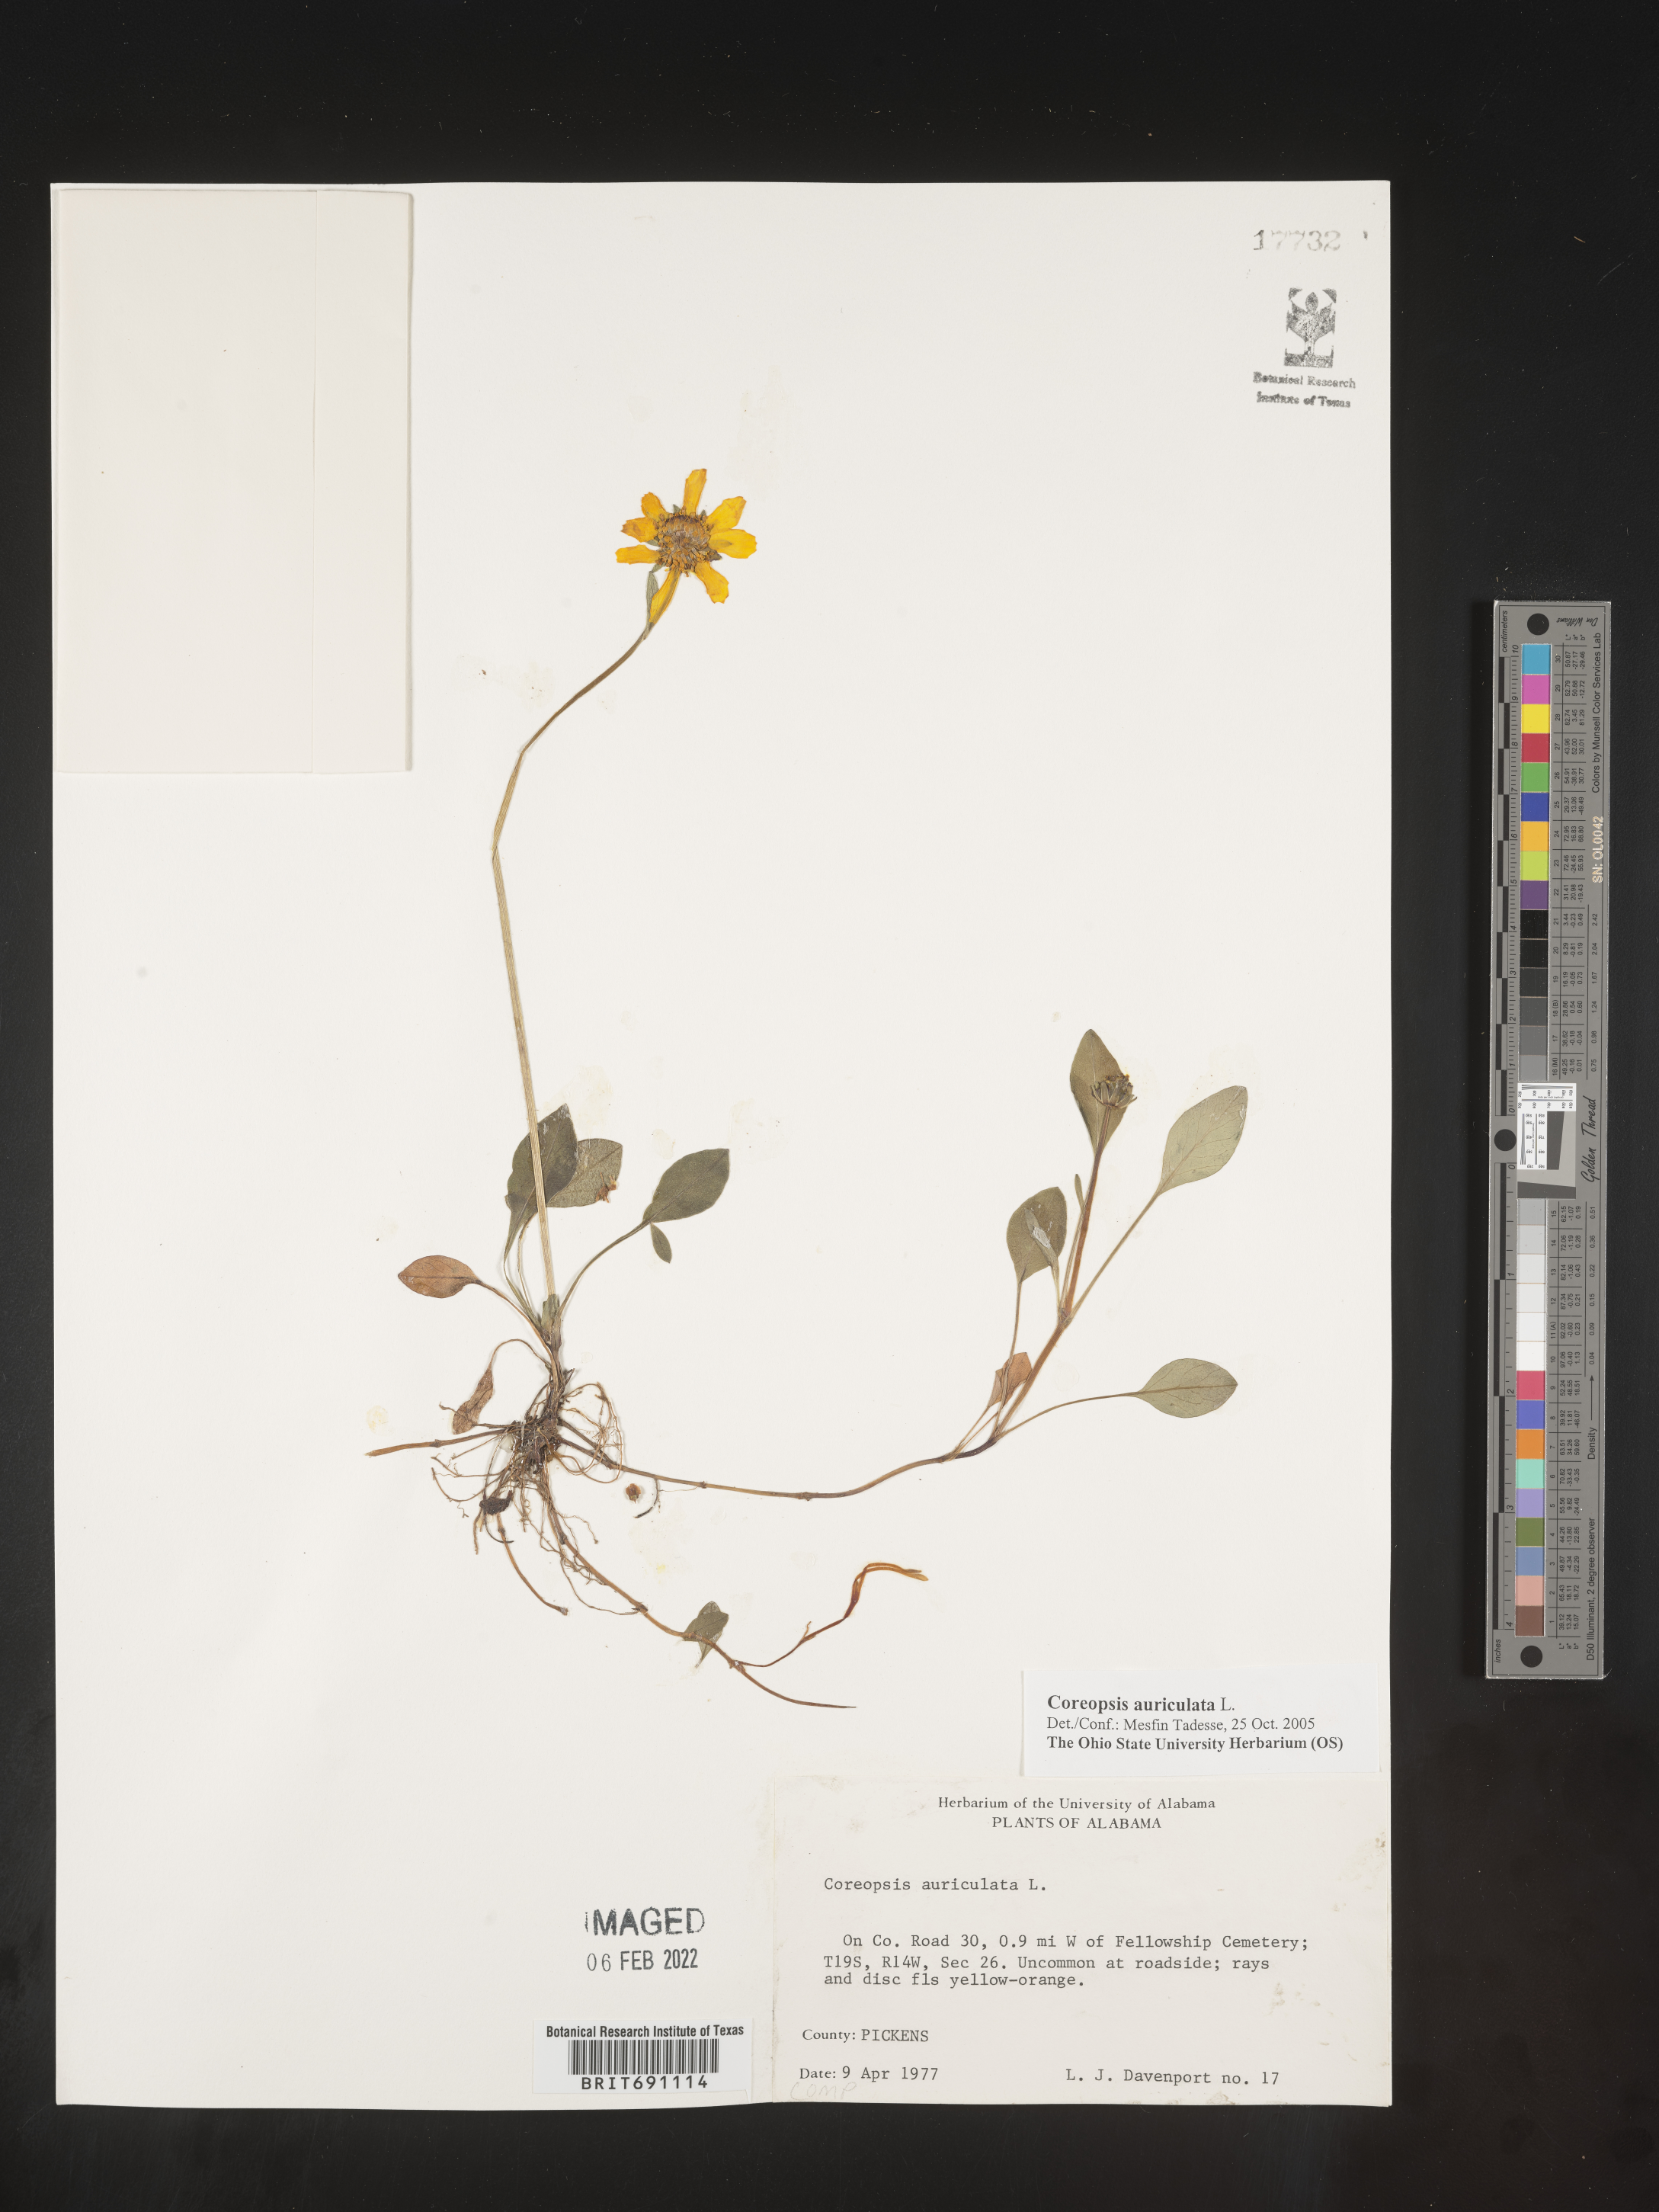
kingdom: Plantae
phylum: Tracheophyta
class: Magnoliopsida
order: Asterales
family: Asteraceae
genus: Coreopsis
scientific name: Coreopsis auriculata
